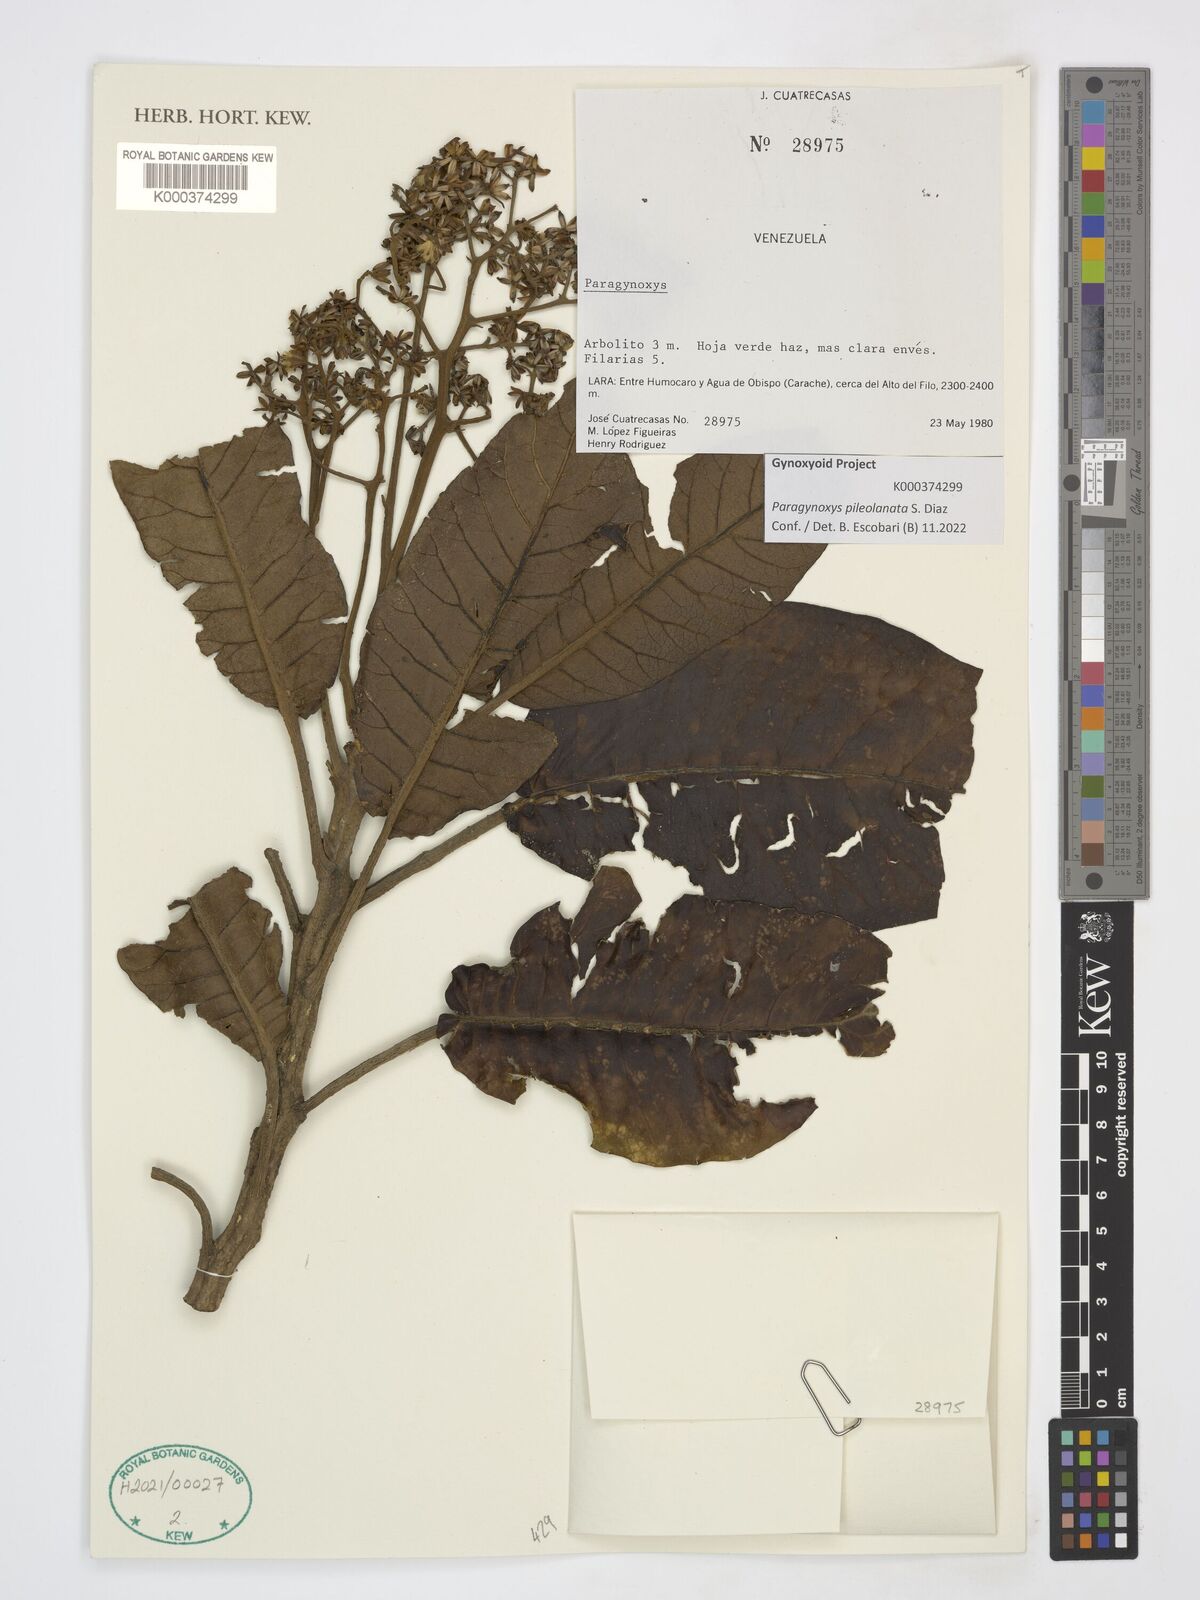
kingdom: Plantae
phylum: Tracheophyta
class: Magnoliopsida
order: Asterales
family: Asteraceae
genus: Paragynoxys
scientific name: Paragynoxys uribei
